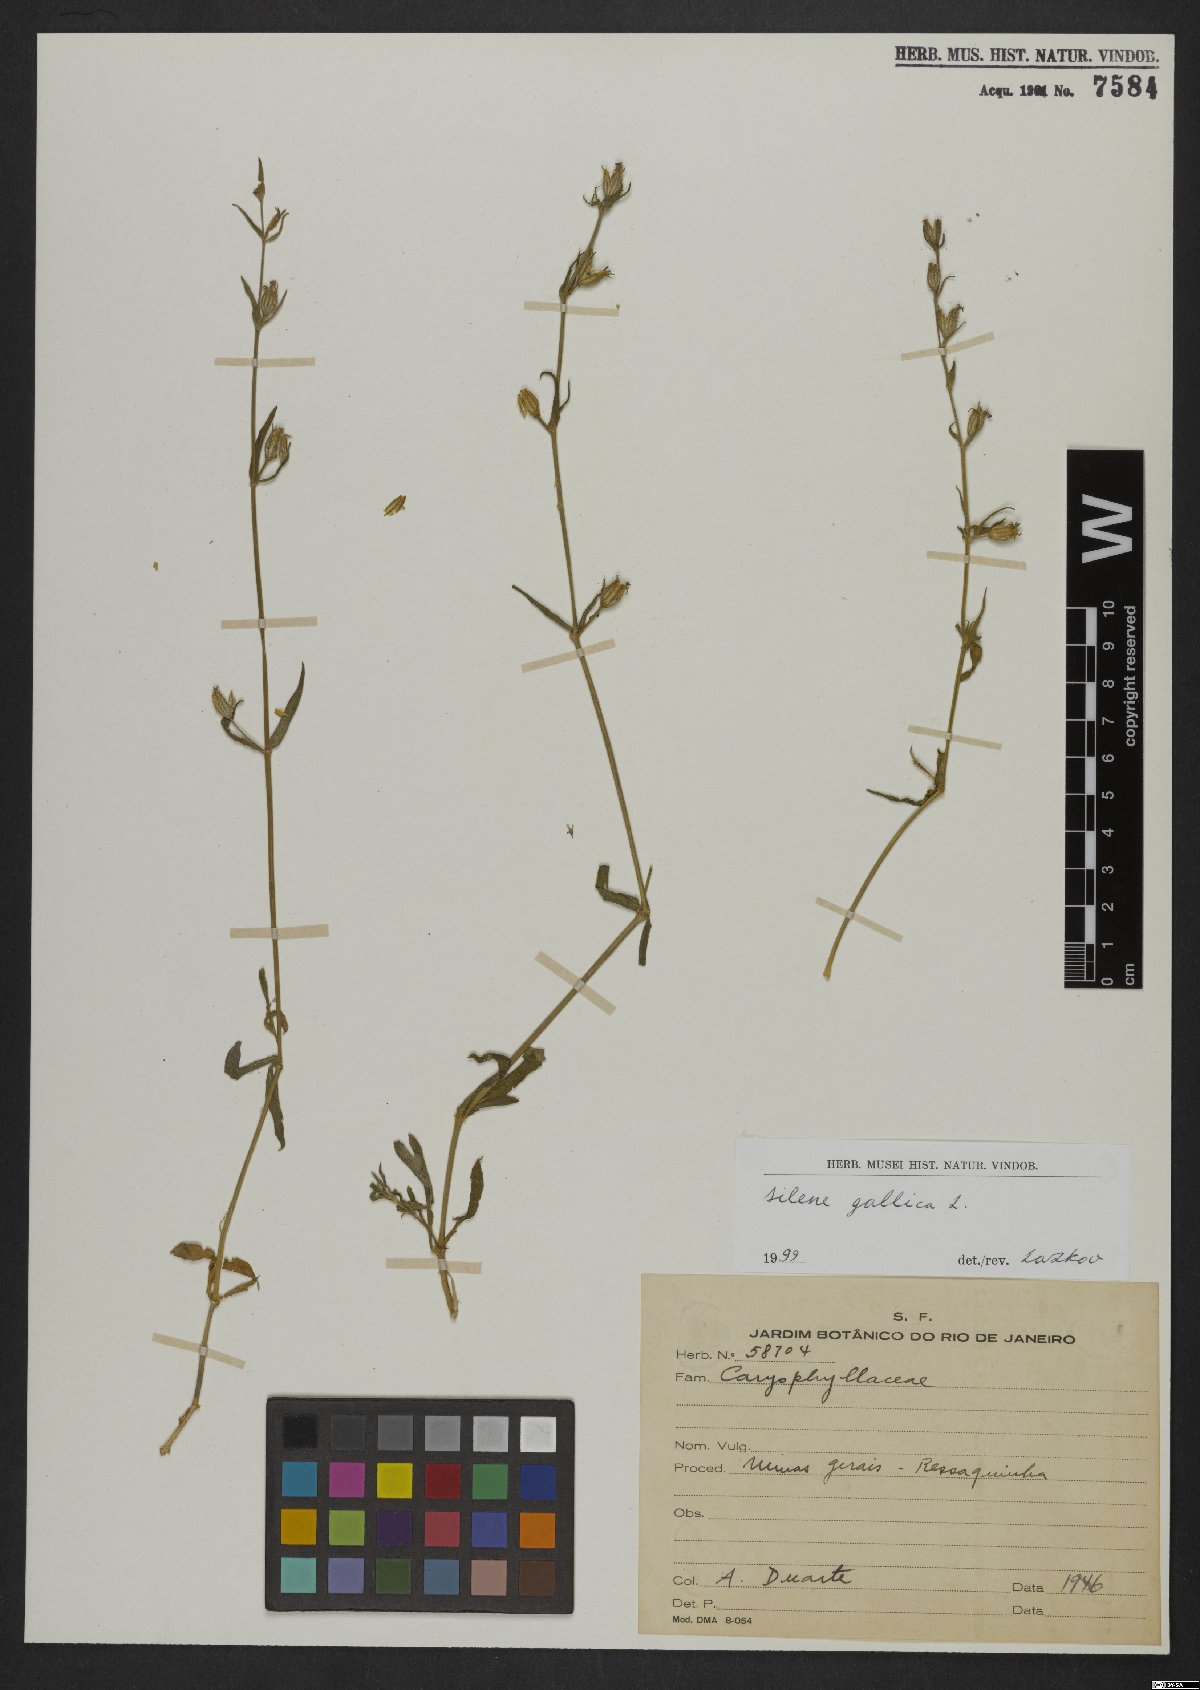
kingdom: Plantae
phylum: Tracheophyta
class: Magnoliopsida
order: Caryophyllales
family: Caryophyllaceae
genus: Silene
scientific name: Silene gallica
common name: Small-flowered catchfly
